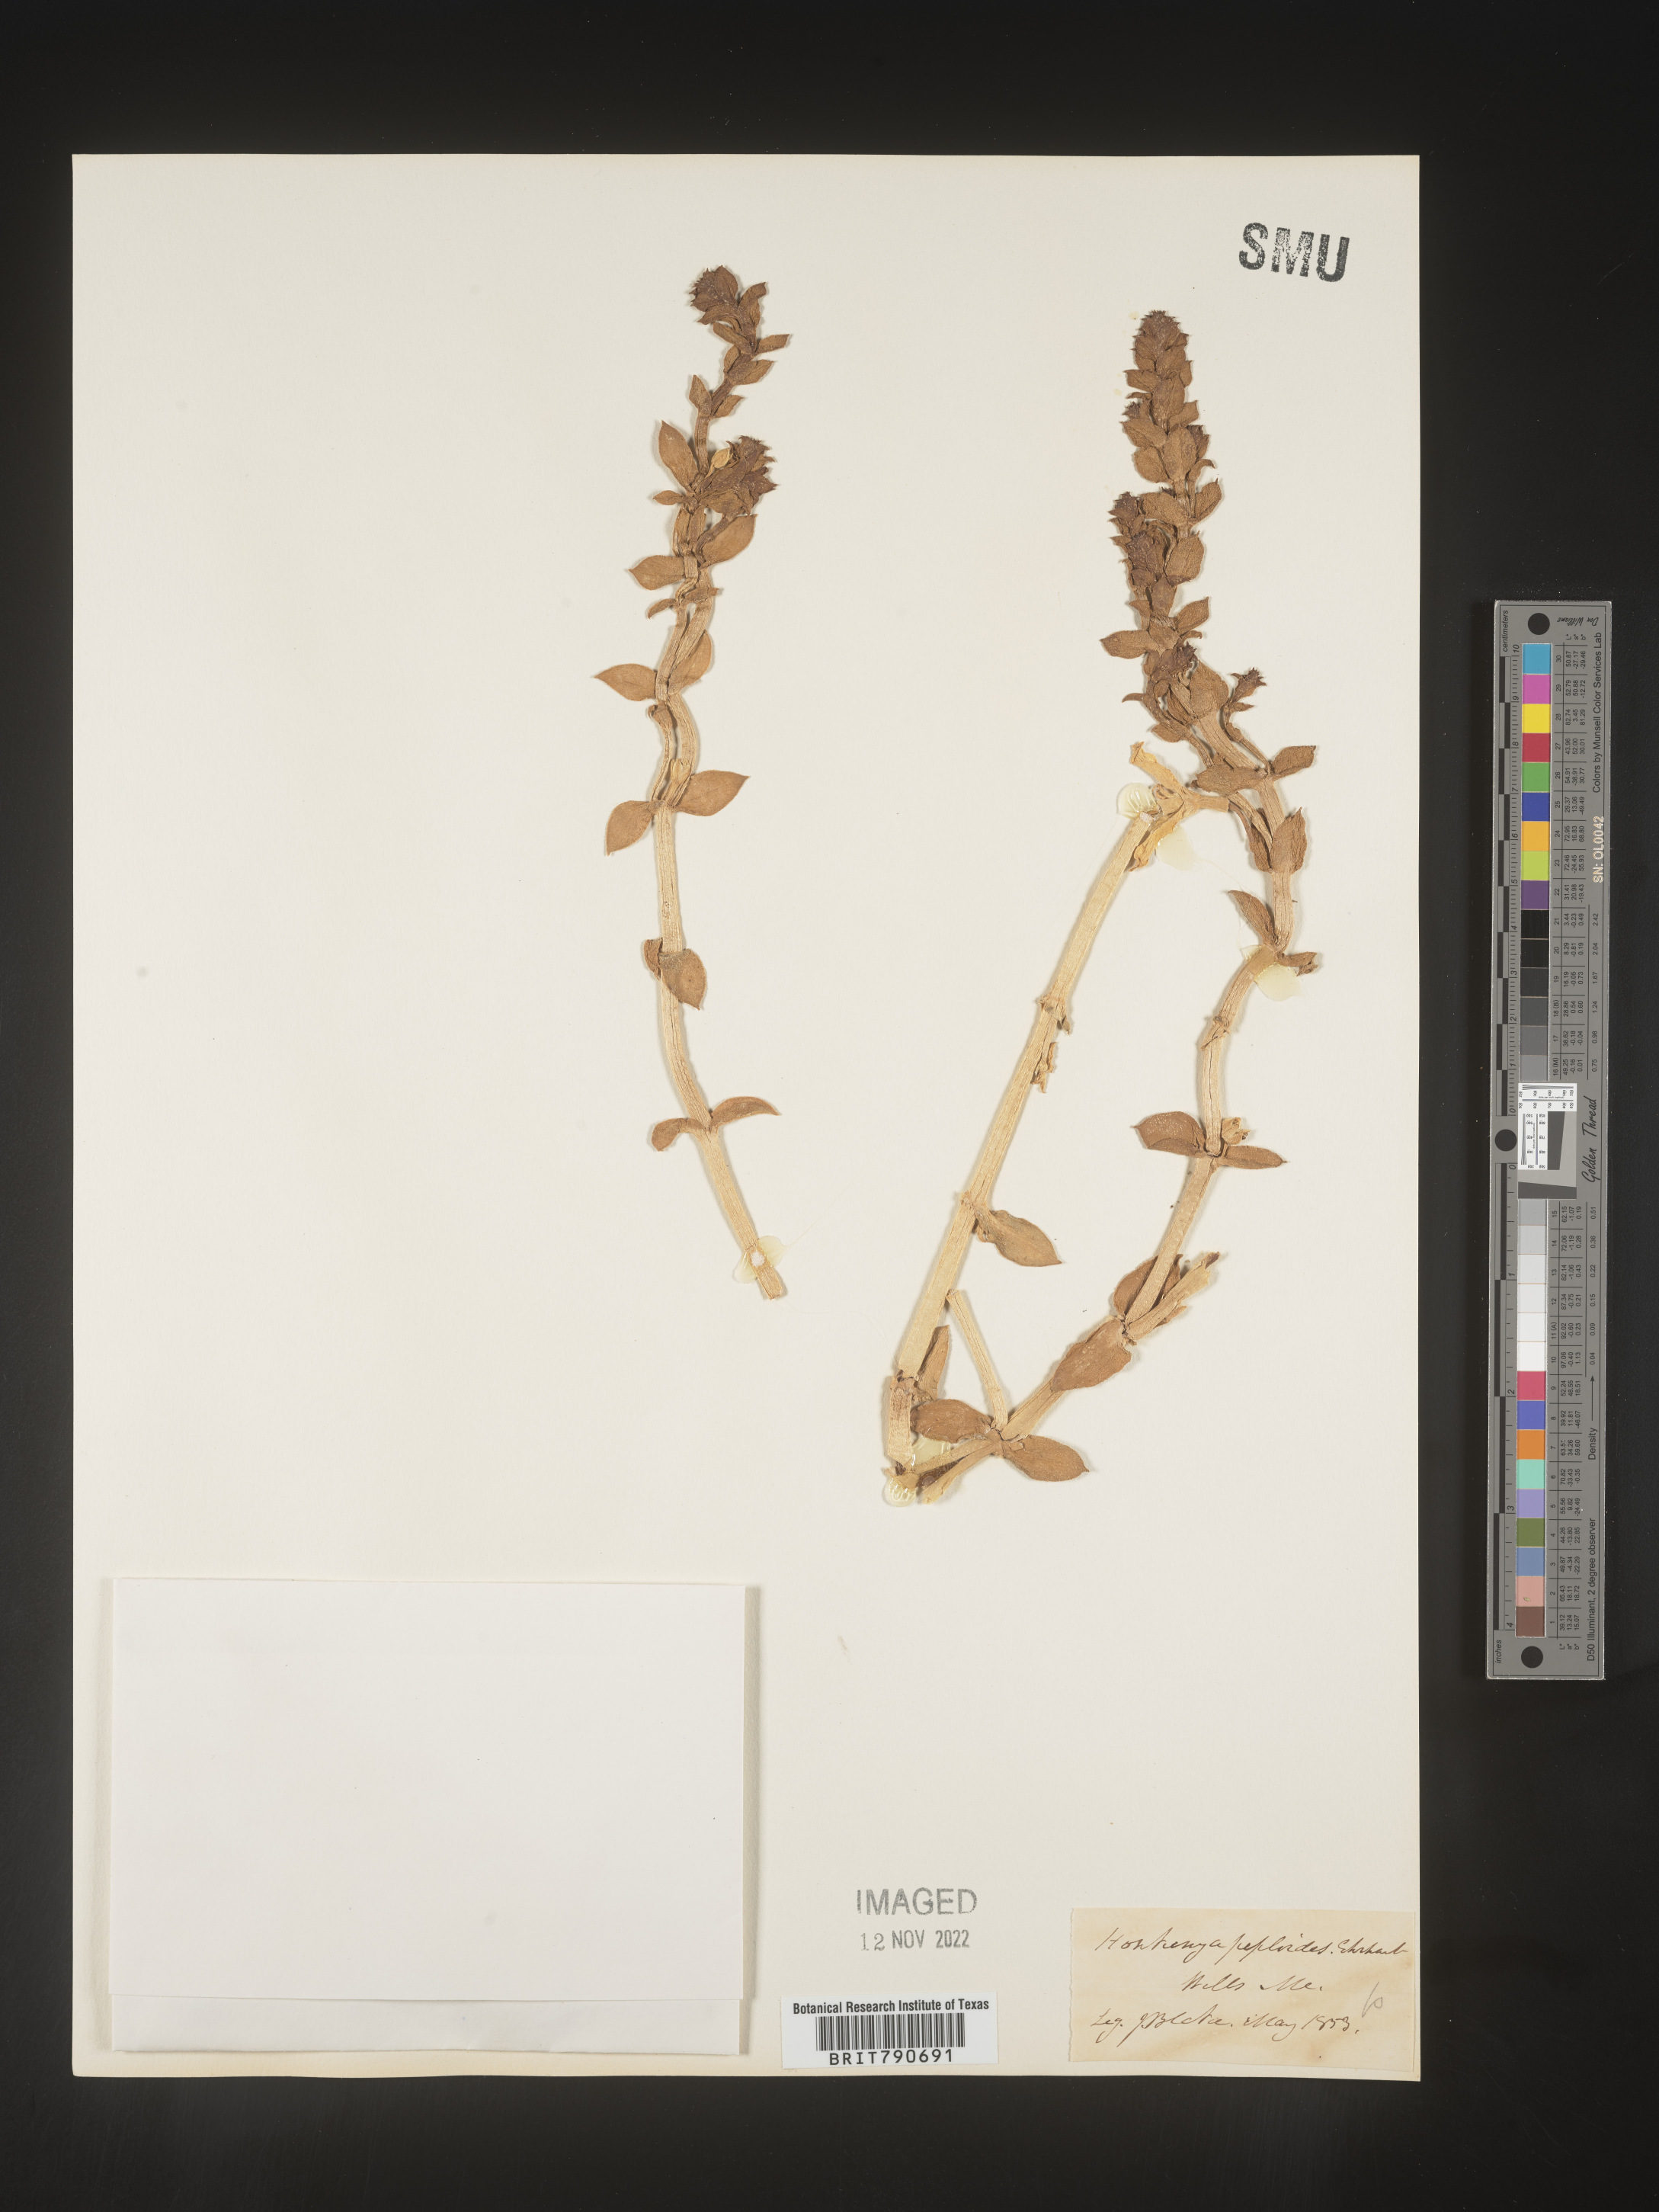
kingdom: Plantae
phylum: Tracheophyta
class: Magnoliopsida
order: Malvales
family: Malvaceae
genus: Clappertonia
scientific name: Clappertonia
